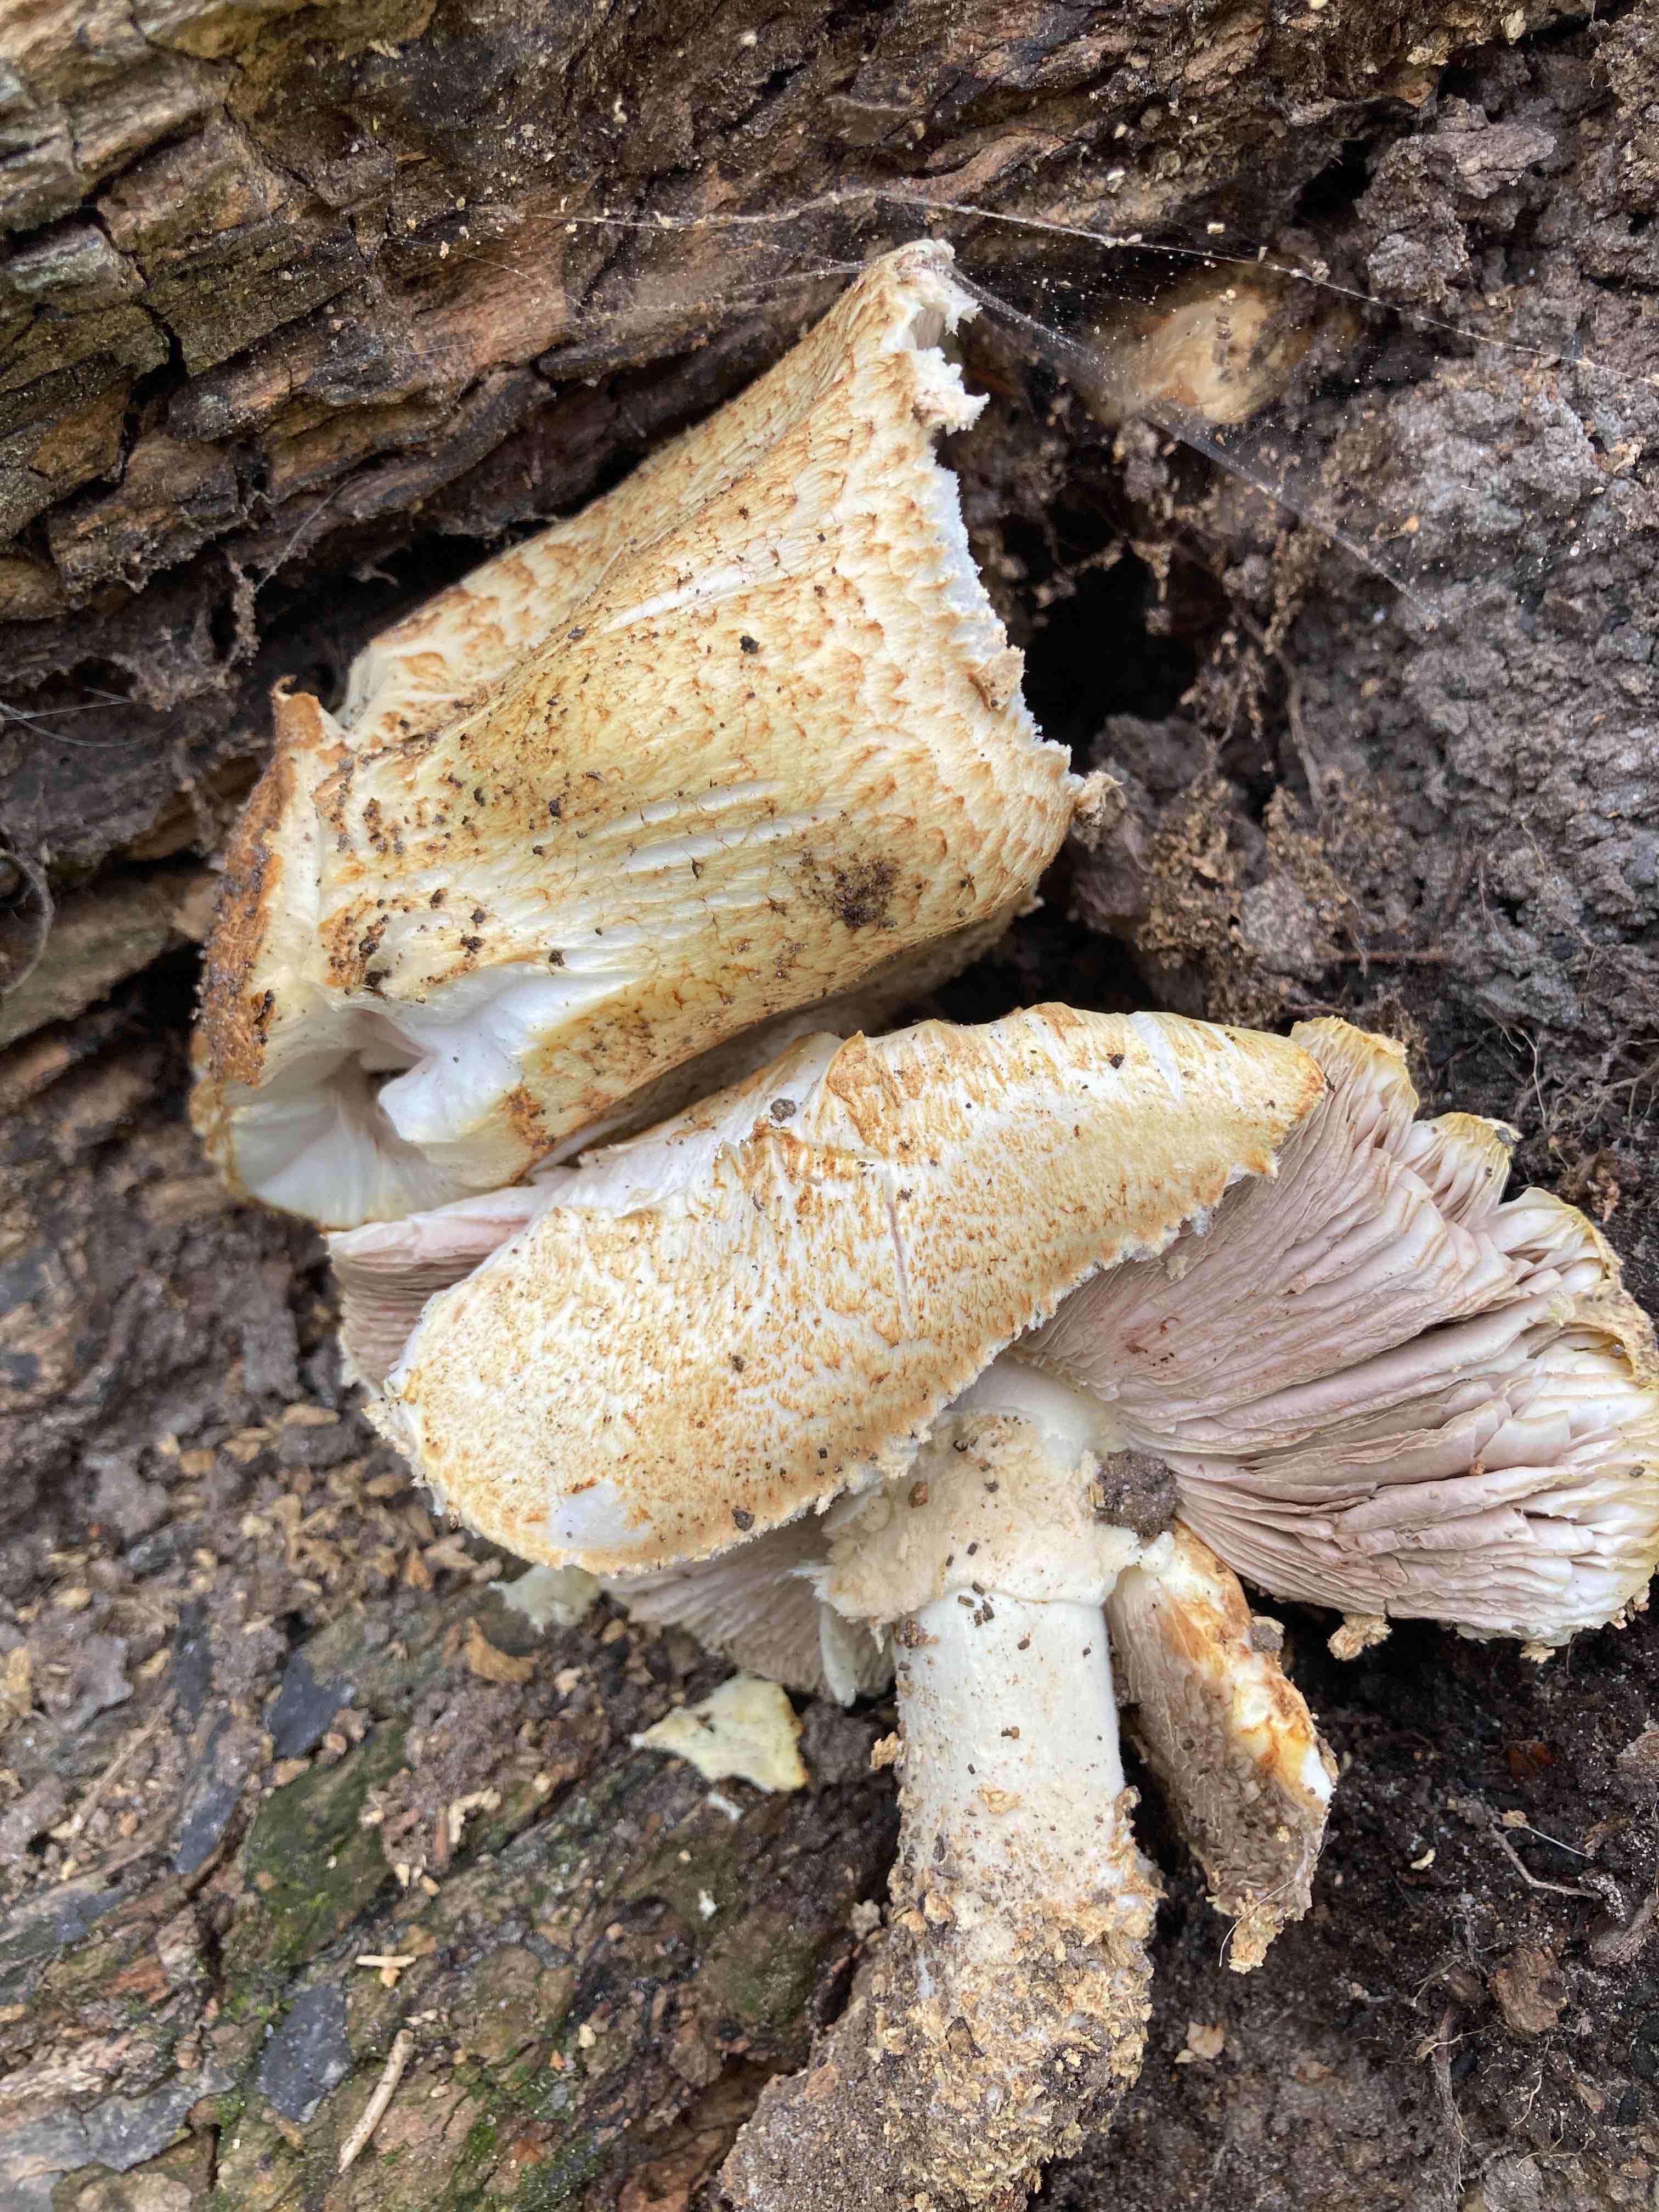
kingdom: Fungi
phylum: Basidiomycota
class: Agaricomycetes
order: Agaricales
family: Agaricaceae
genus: Agaricus
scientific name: Agaricus augustus
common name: prægtig champignon
